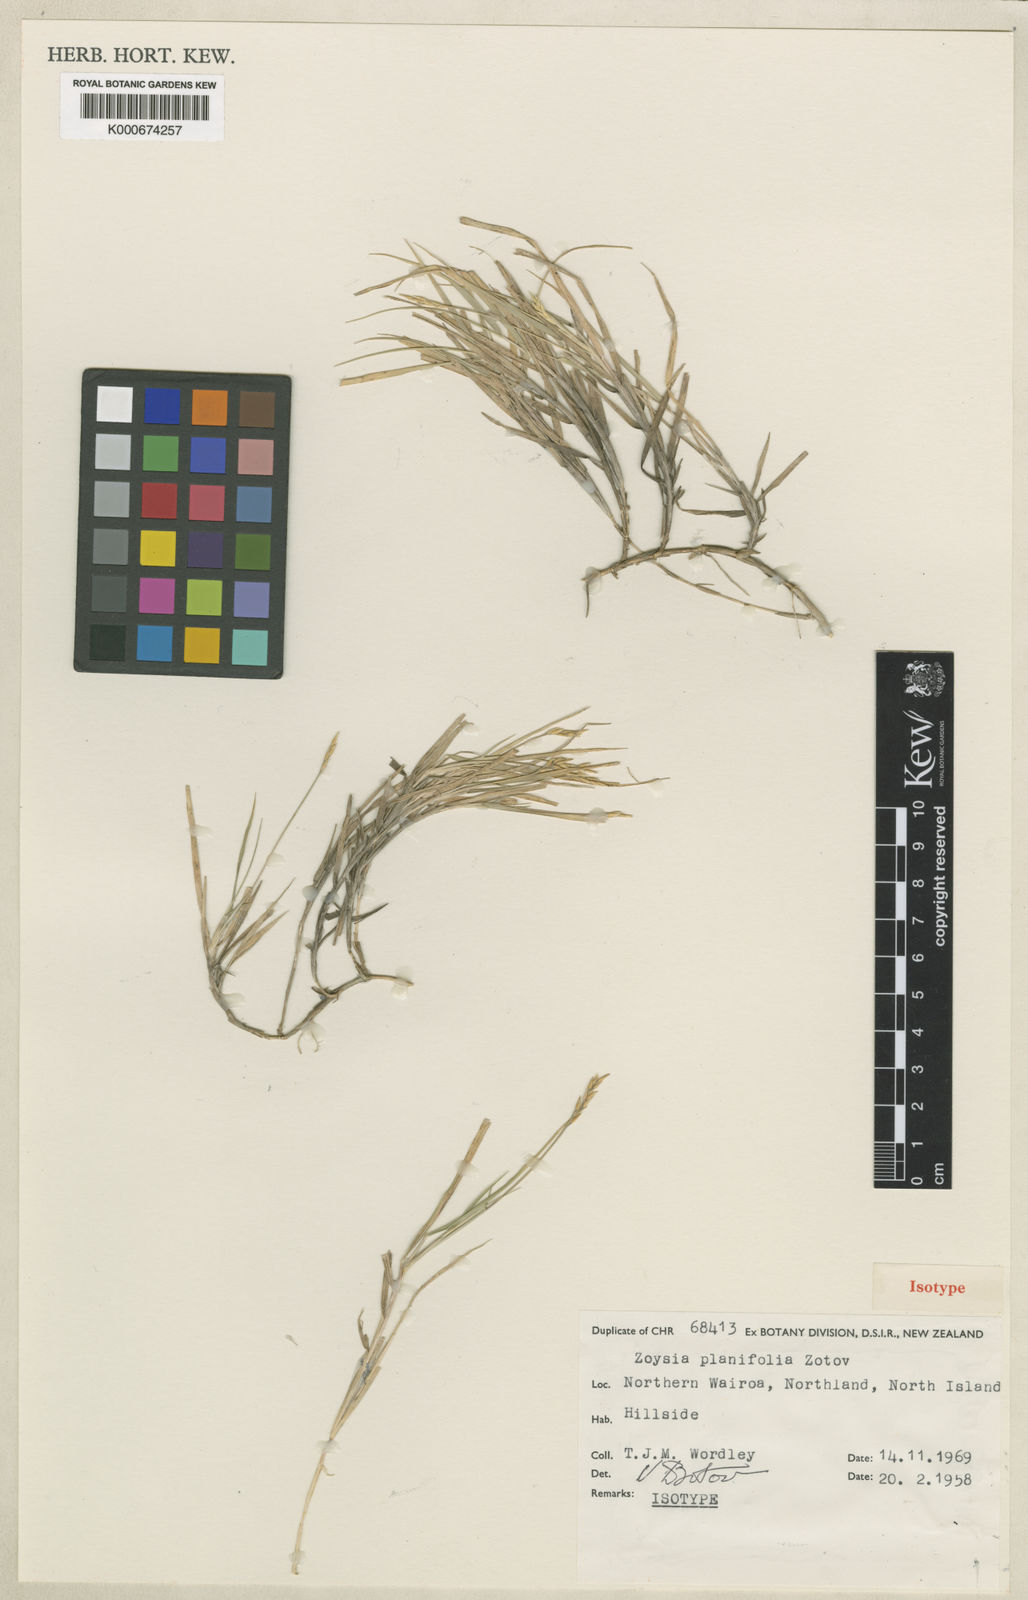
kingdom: Plantae
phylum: Tracheophyta
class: Liliopsida
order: Poales
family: Poaceae
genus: Zoysia
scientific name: Zoysia pauciflora
